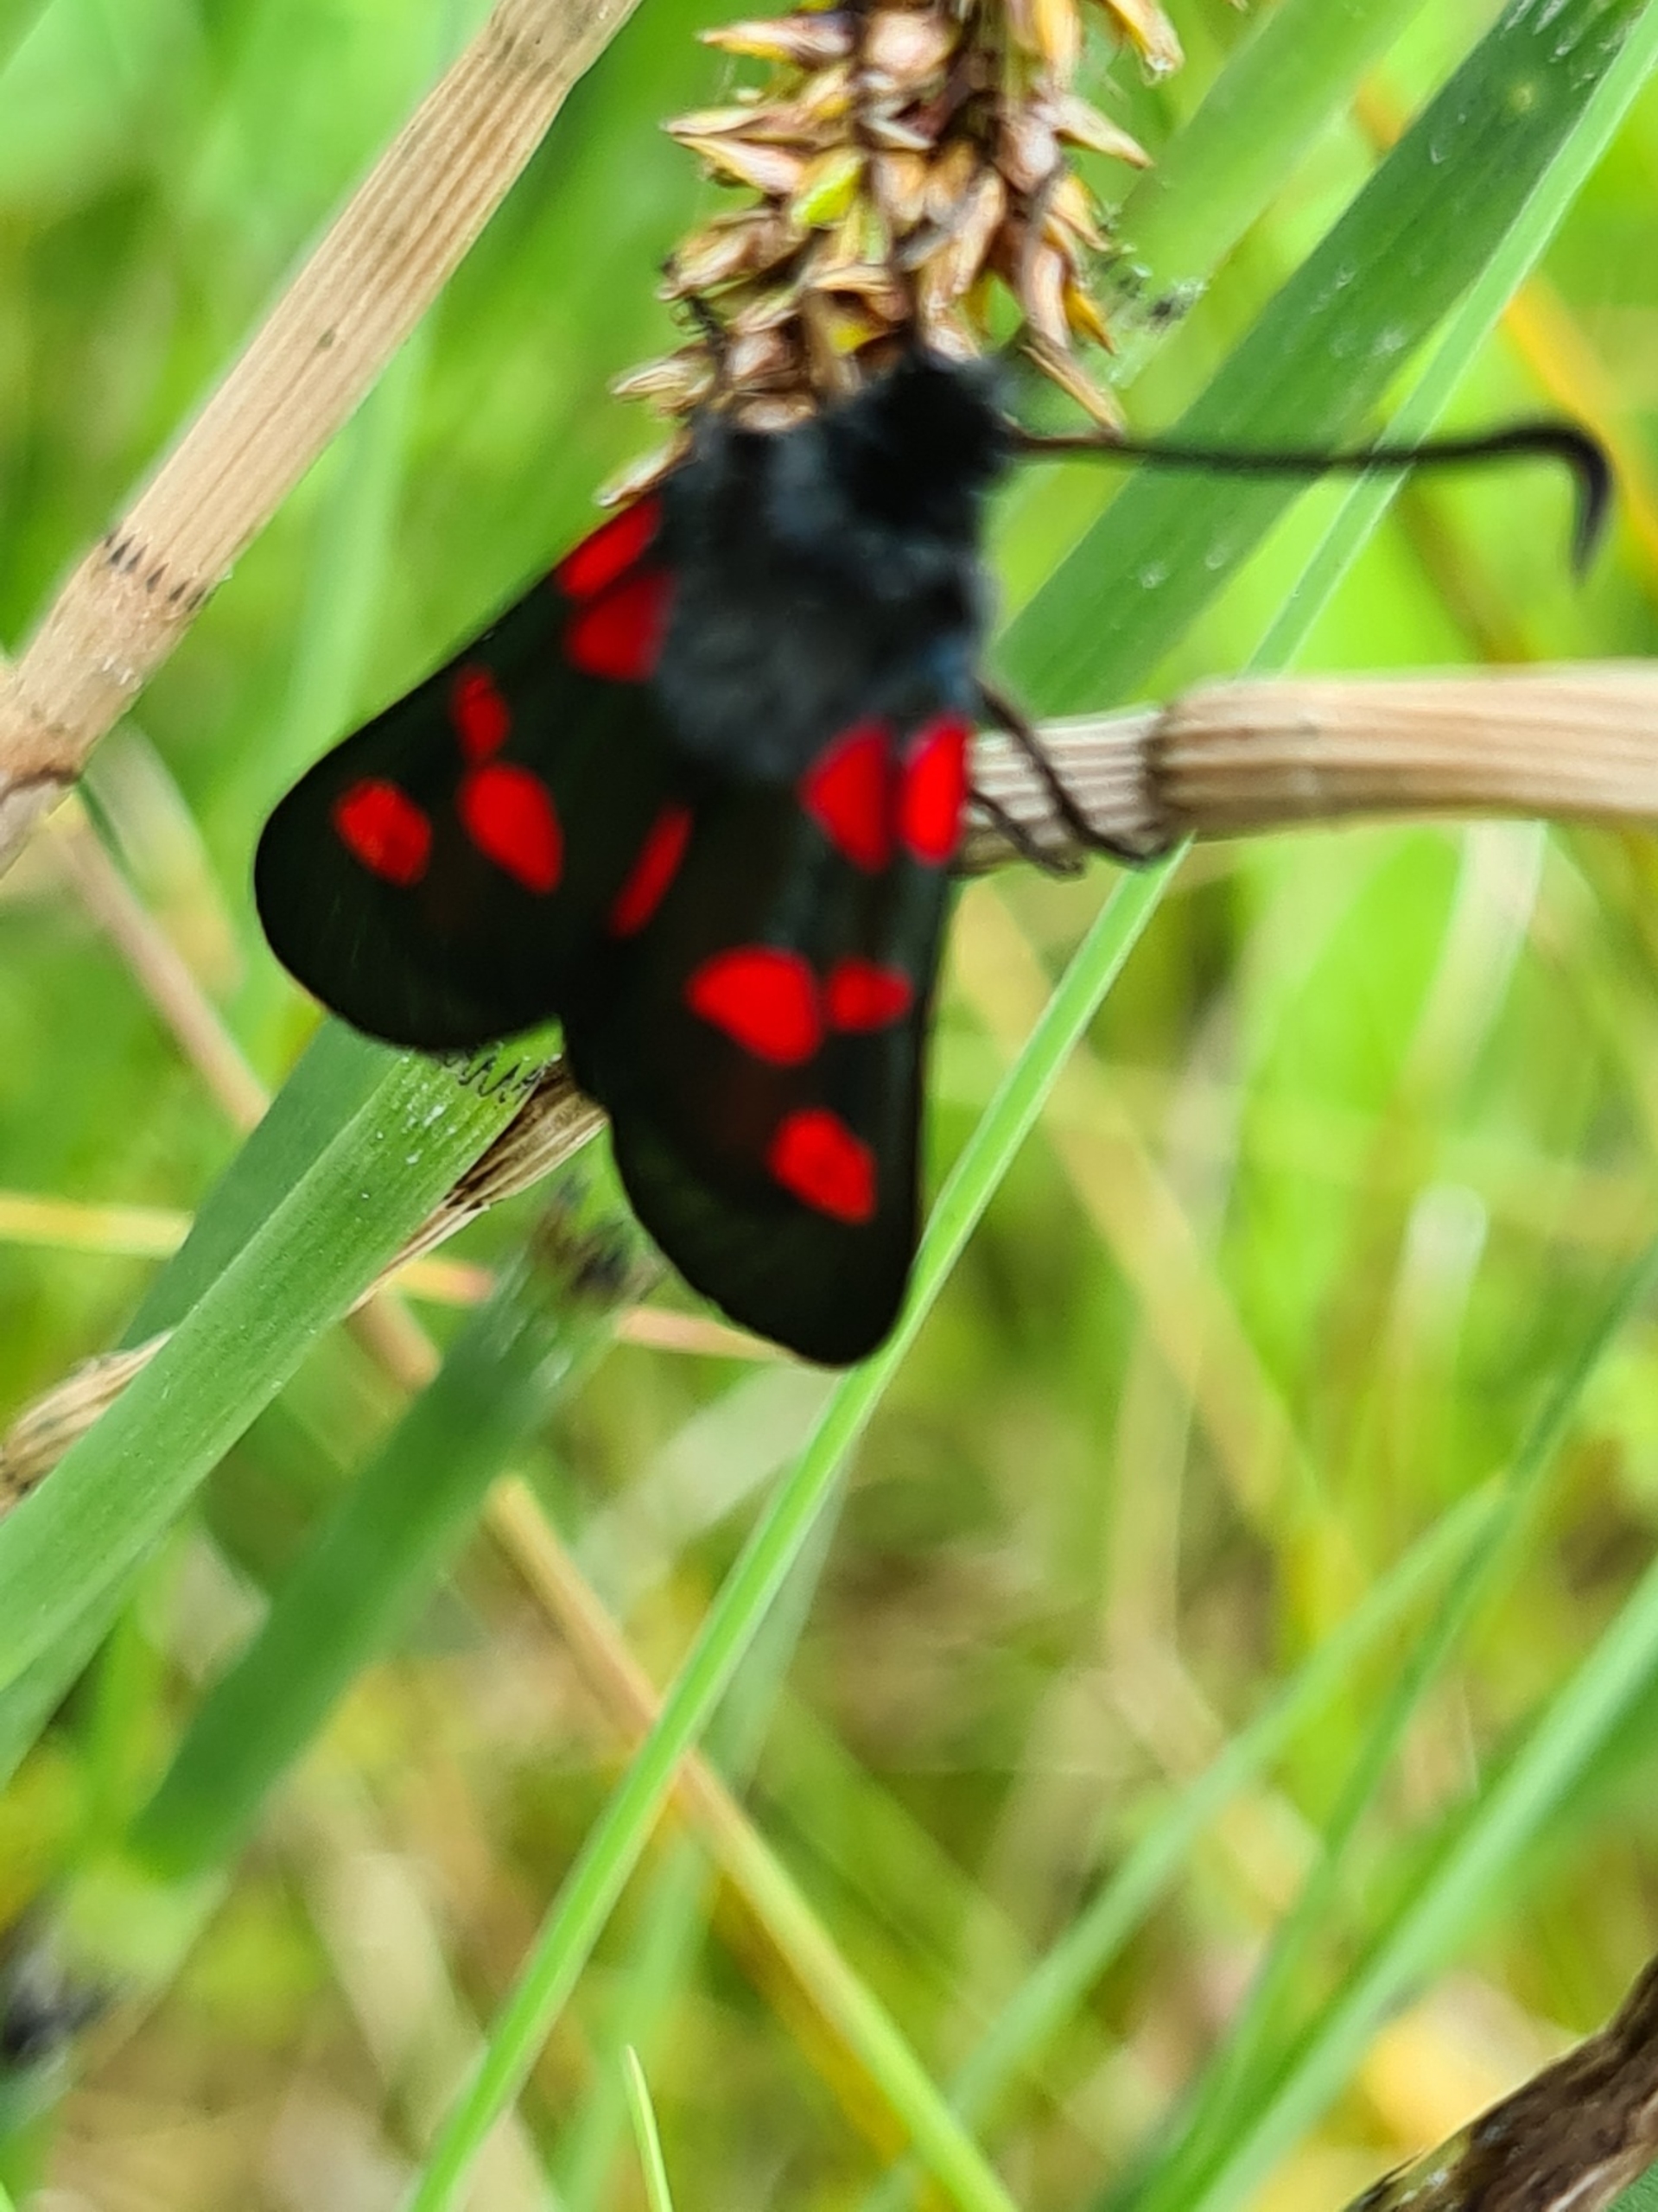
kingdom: Animalia
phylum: Arthropoda
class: Insecta
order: Lepidoptera
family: Zygaenidae
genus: Zygaena
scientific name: Zygaena lonicerae
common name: Femplettet køllesværmer
